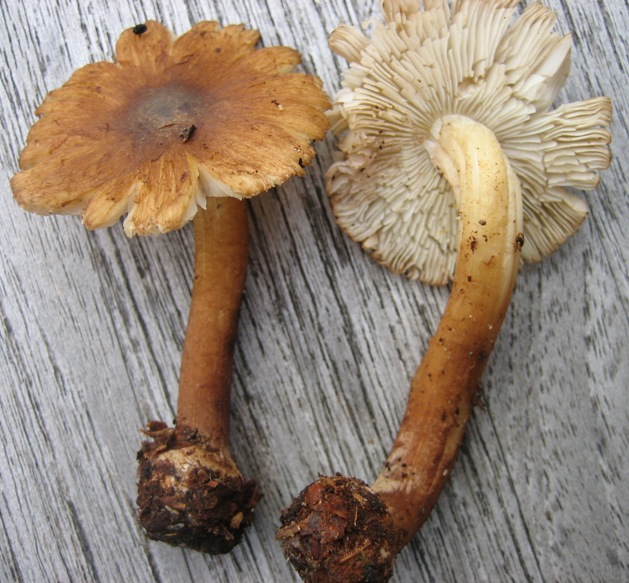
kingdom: Fungi
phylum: Basidiomycota
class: Agaricomycetes
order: Agaricales
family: Inocybaceae
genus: Inocybe
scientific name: Inocybe napipes
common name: roeknoldet trævlhat
